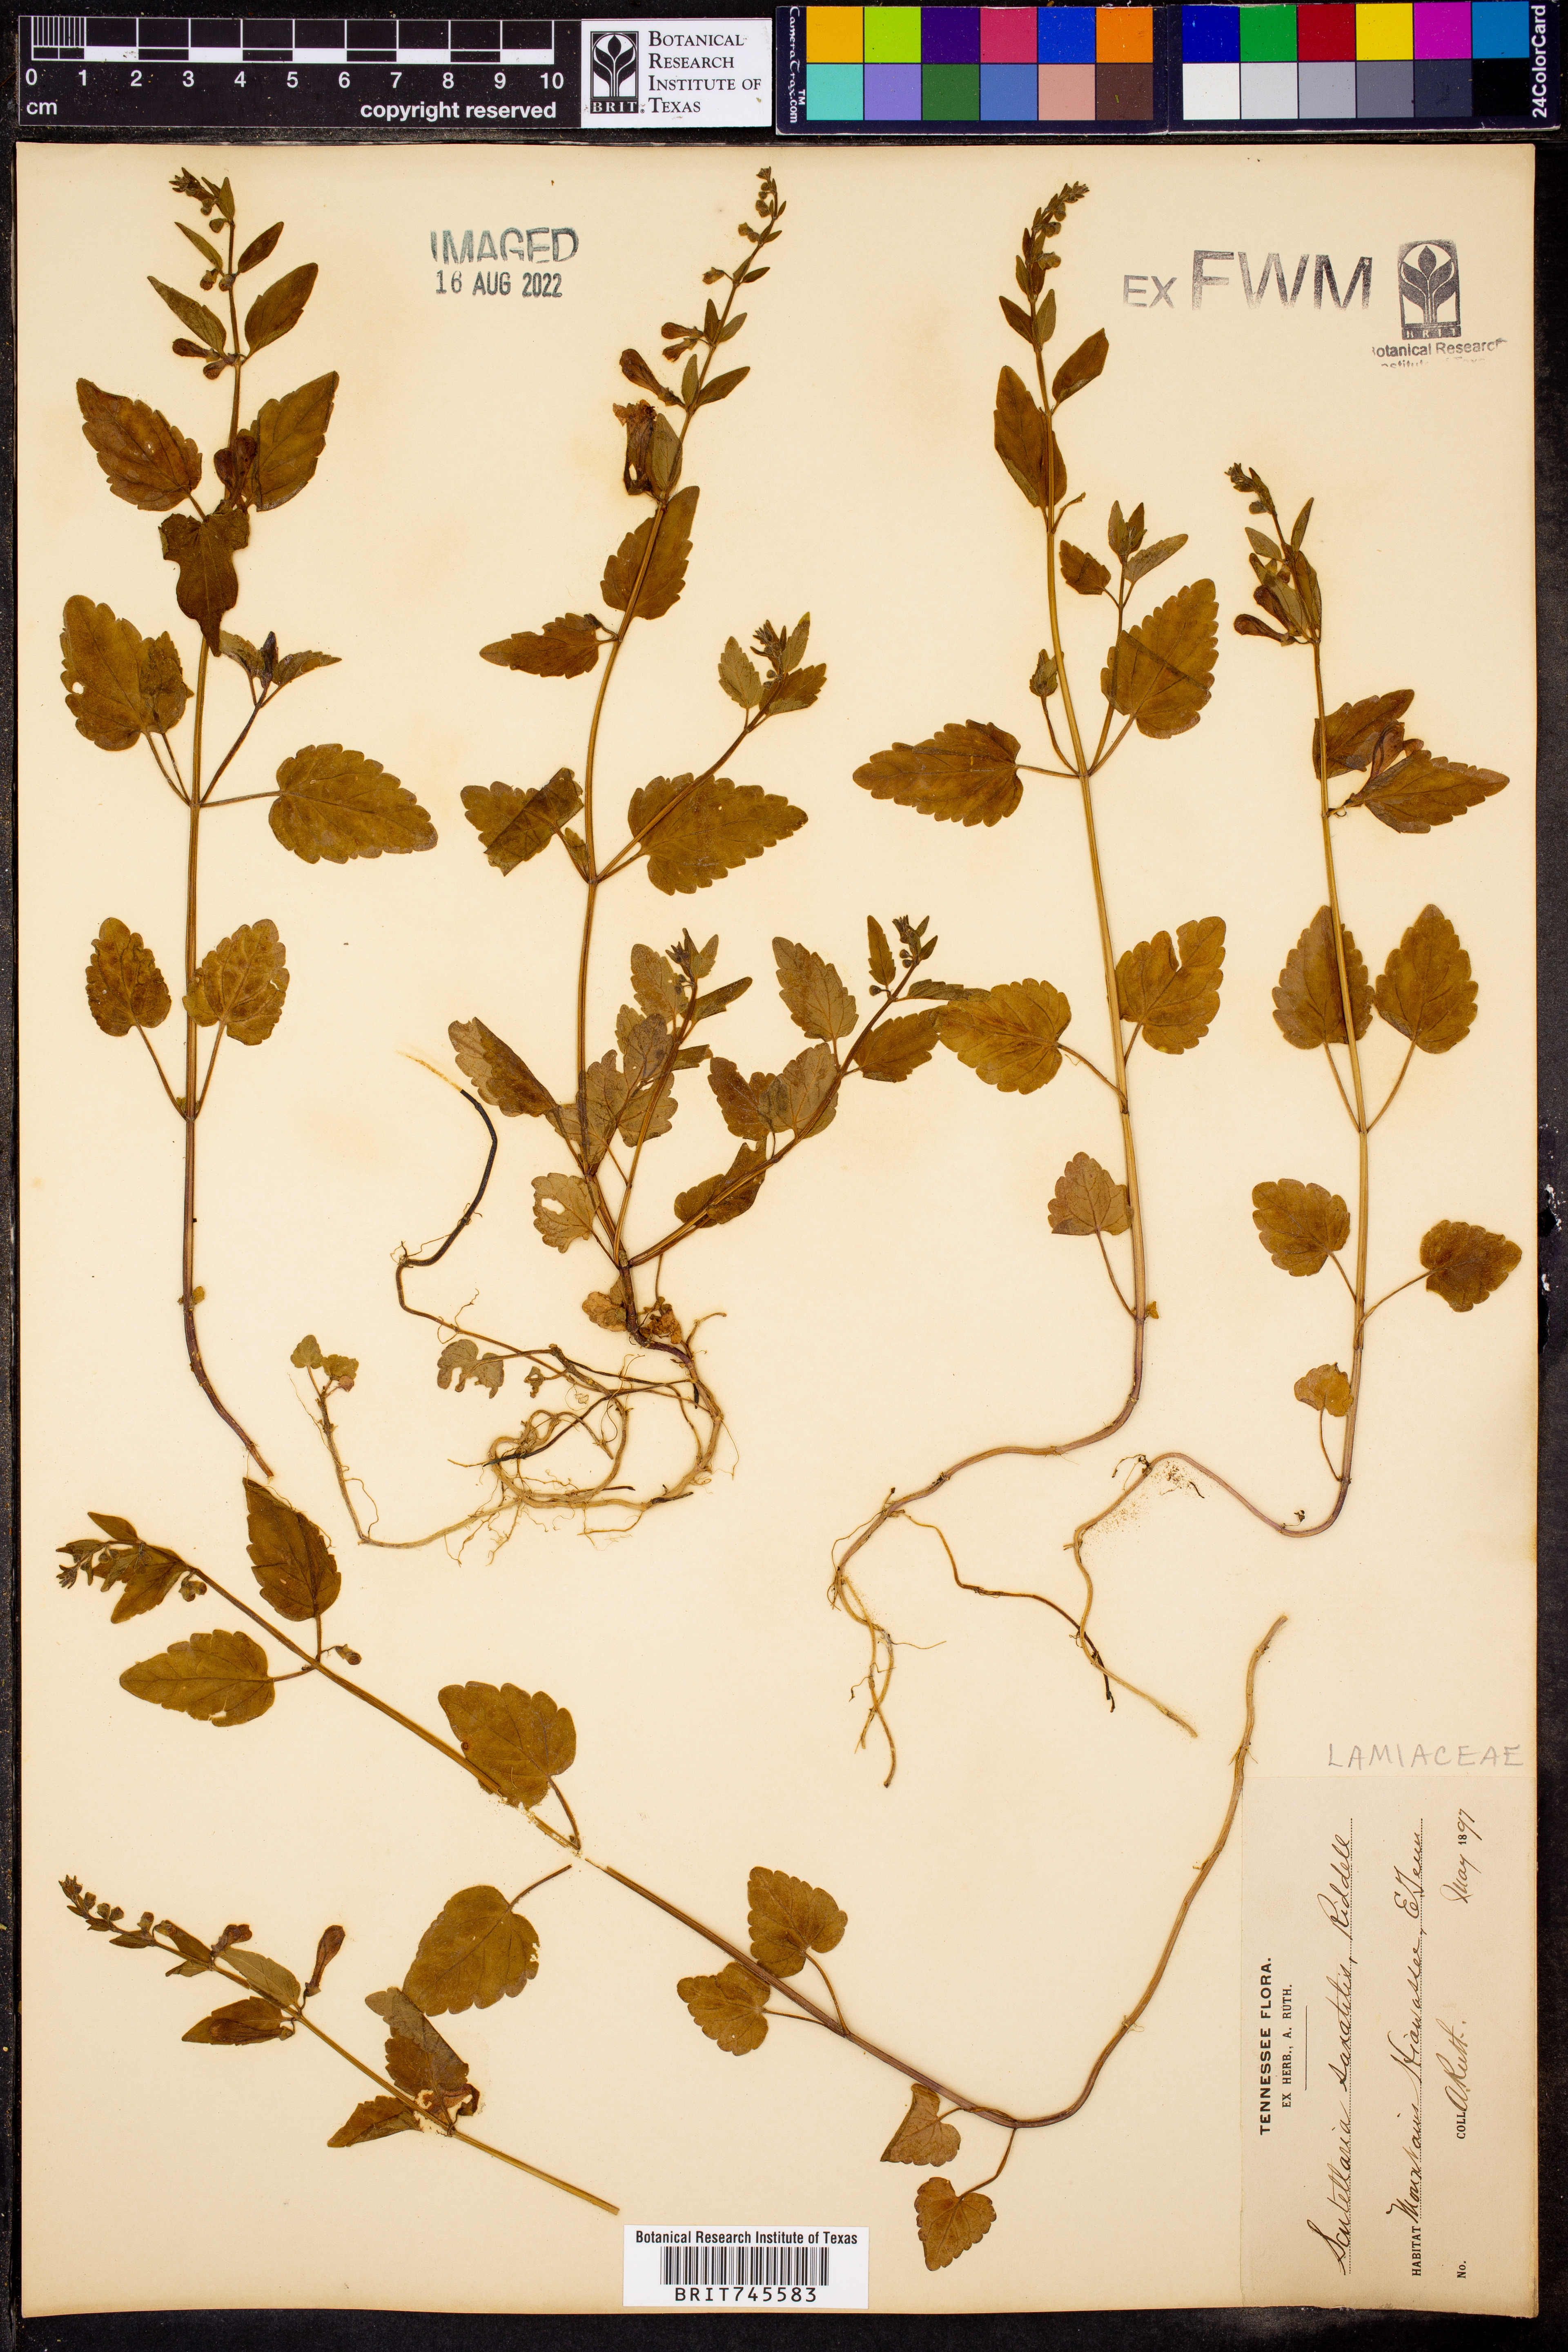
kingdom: Plantae
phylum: Tracheophyta
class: Magnoliopsida
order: Lamiales
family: Lamiaceae
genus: Scutellaria
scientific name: Scutellaria
